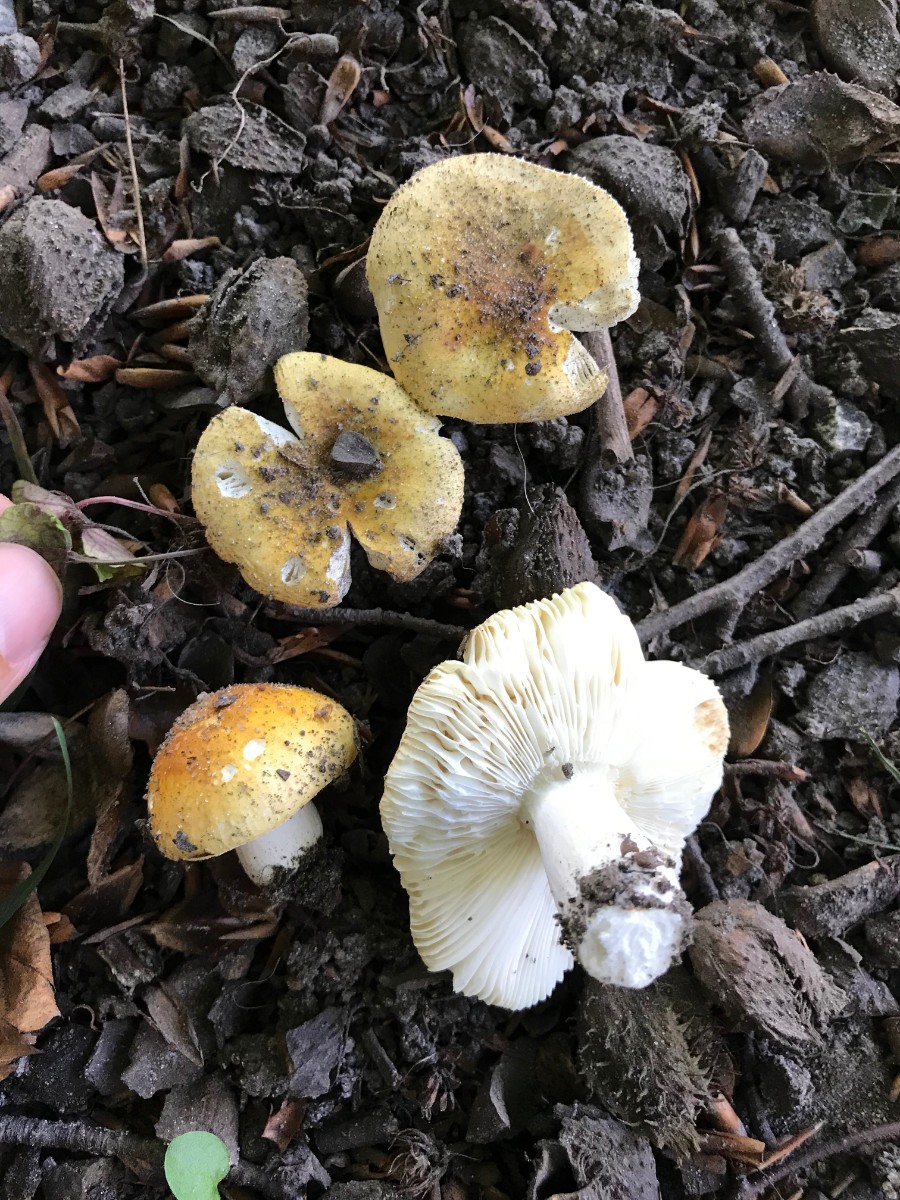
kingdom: Fungi
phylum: Basidiomycota
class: Agaricomycetes
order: Russulales
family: Russulaceae
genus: Russula
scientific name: Russula solaris
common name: sol-skørhat
